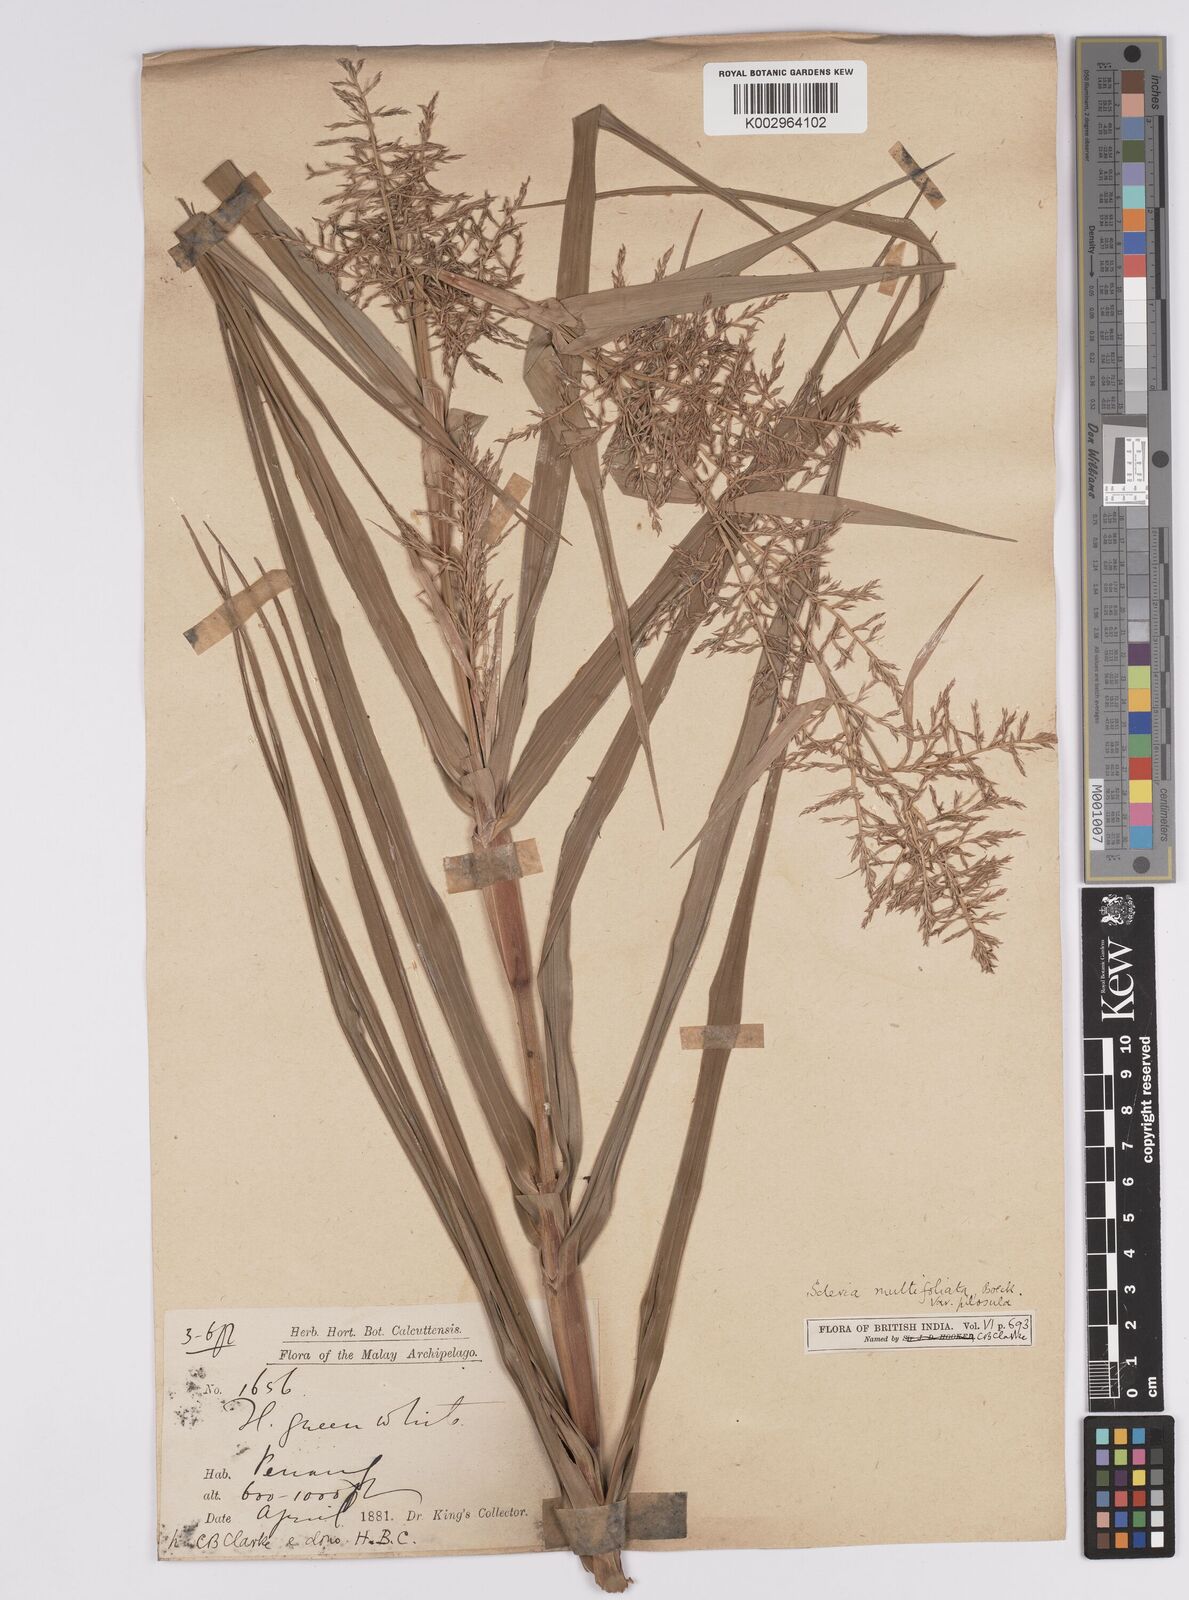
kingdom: Plantae
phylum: Tracheophyta
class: Liliopsida
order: Poales
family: Cyperaceae
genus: Scleria
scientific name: Scleria purpurascens
